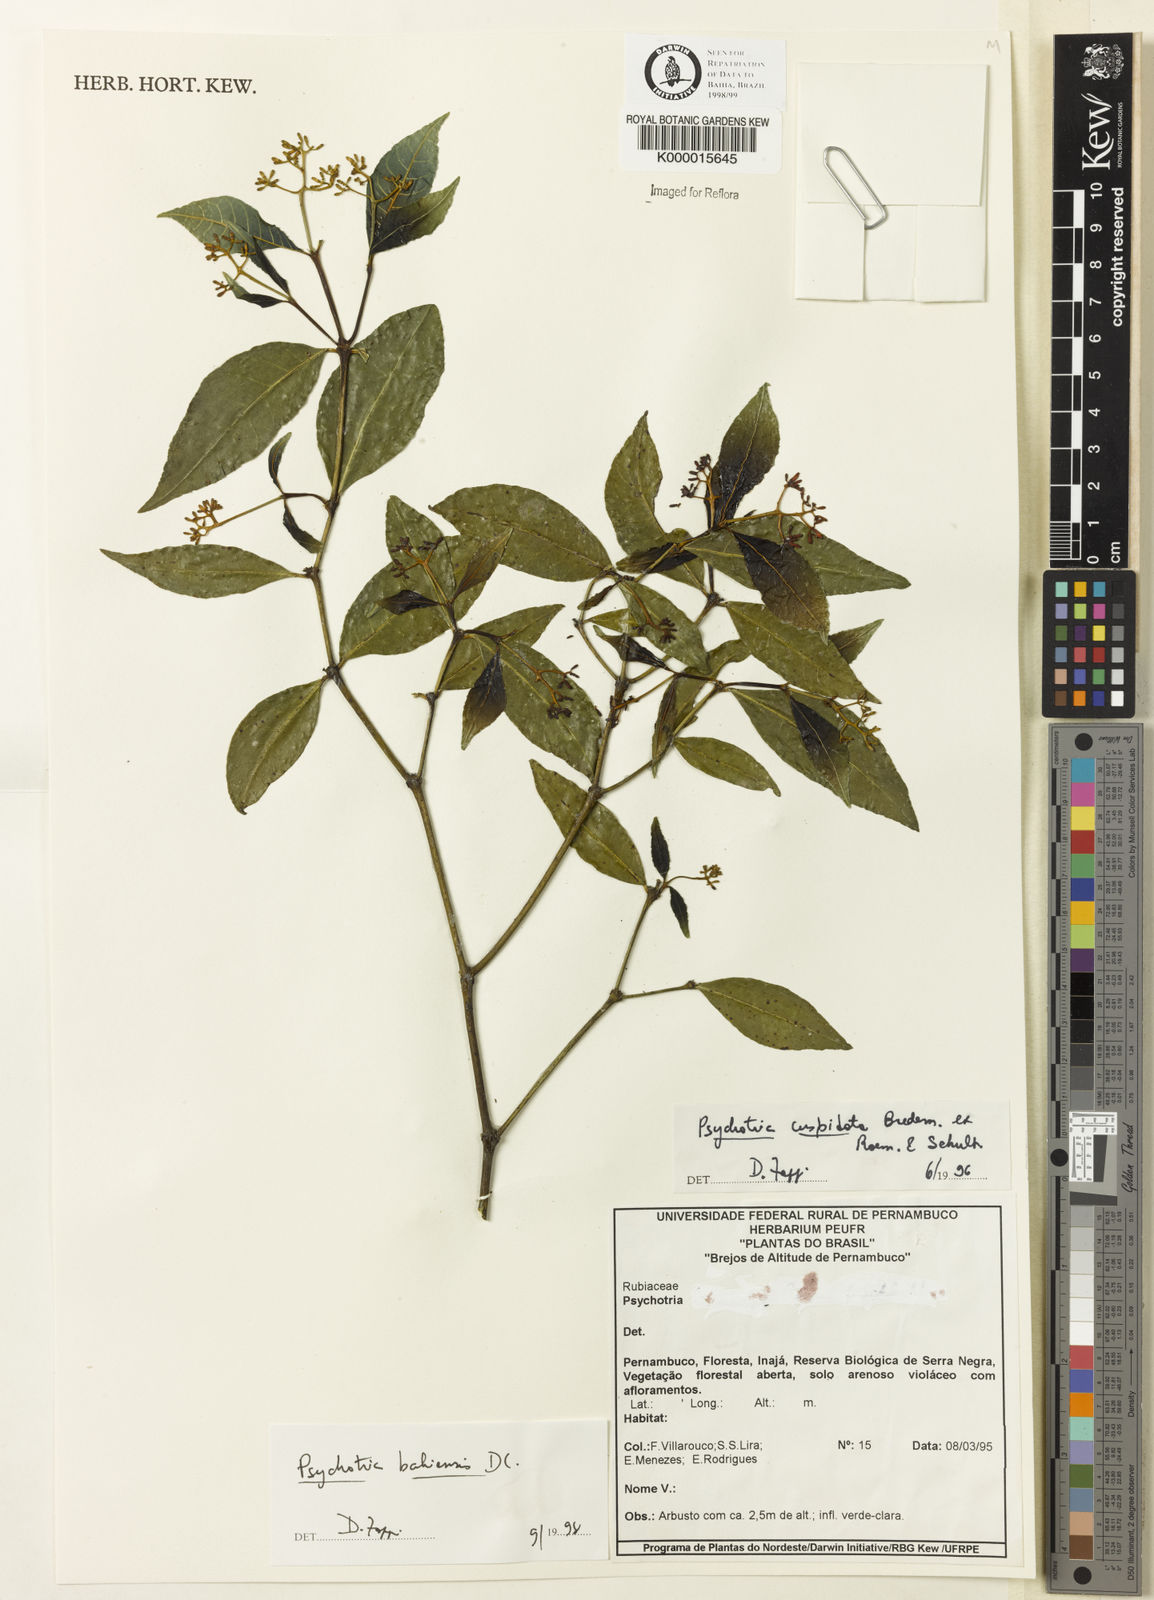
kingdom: Plantae
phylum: Tracheophyta
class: Magnoliopsida
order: Gentianales
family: Rubiaceae
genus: Psychotria
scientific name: Psychotria bahiensis
